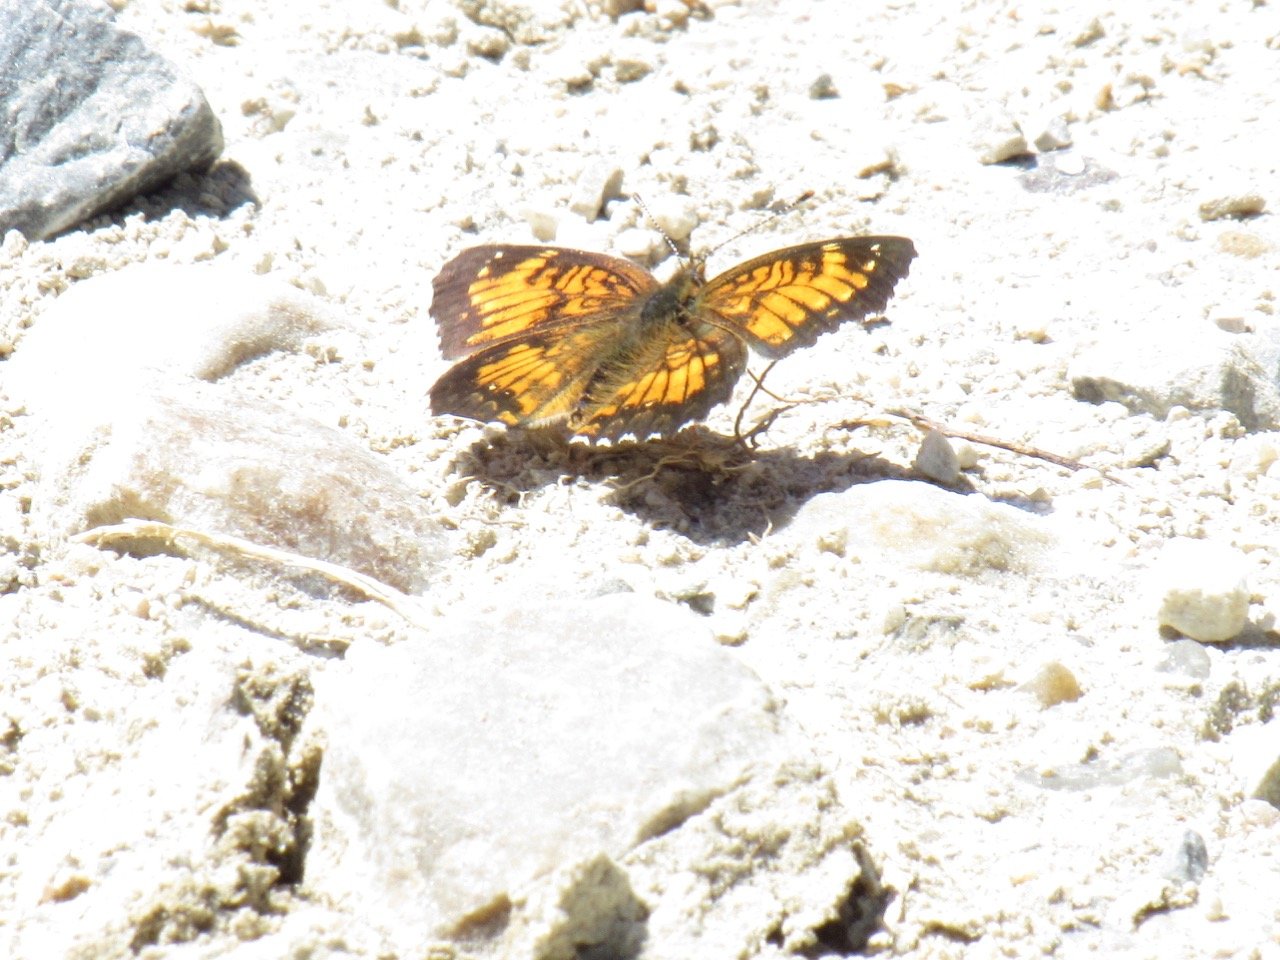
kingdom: Animalia
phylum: Arthropoda
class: Insecta
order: Lepidoptera
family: Nymphalidae
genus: Chlosyne
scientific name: Chlosyne harrisii
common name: Harris's Checkerspot
